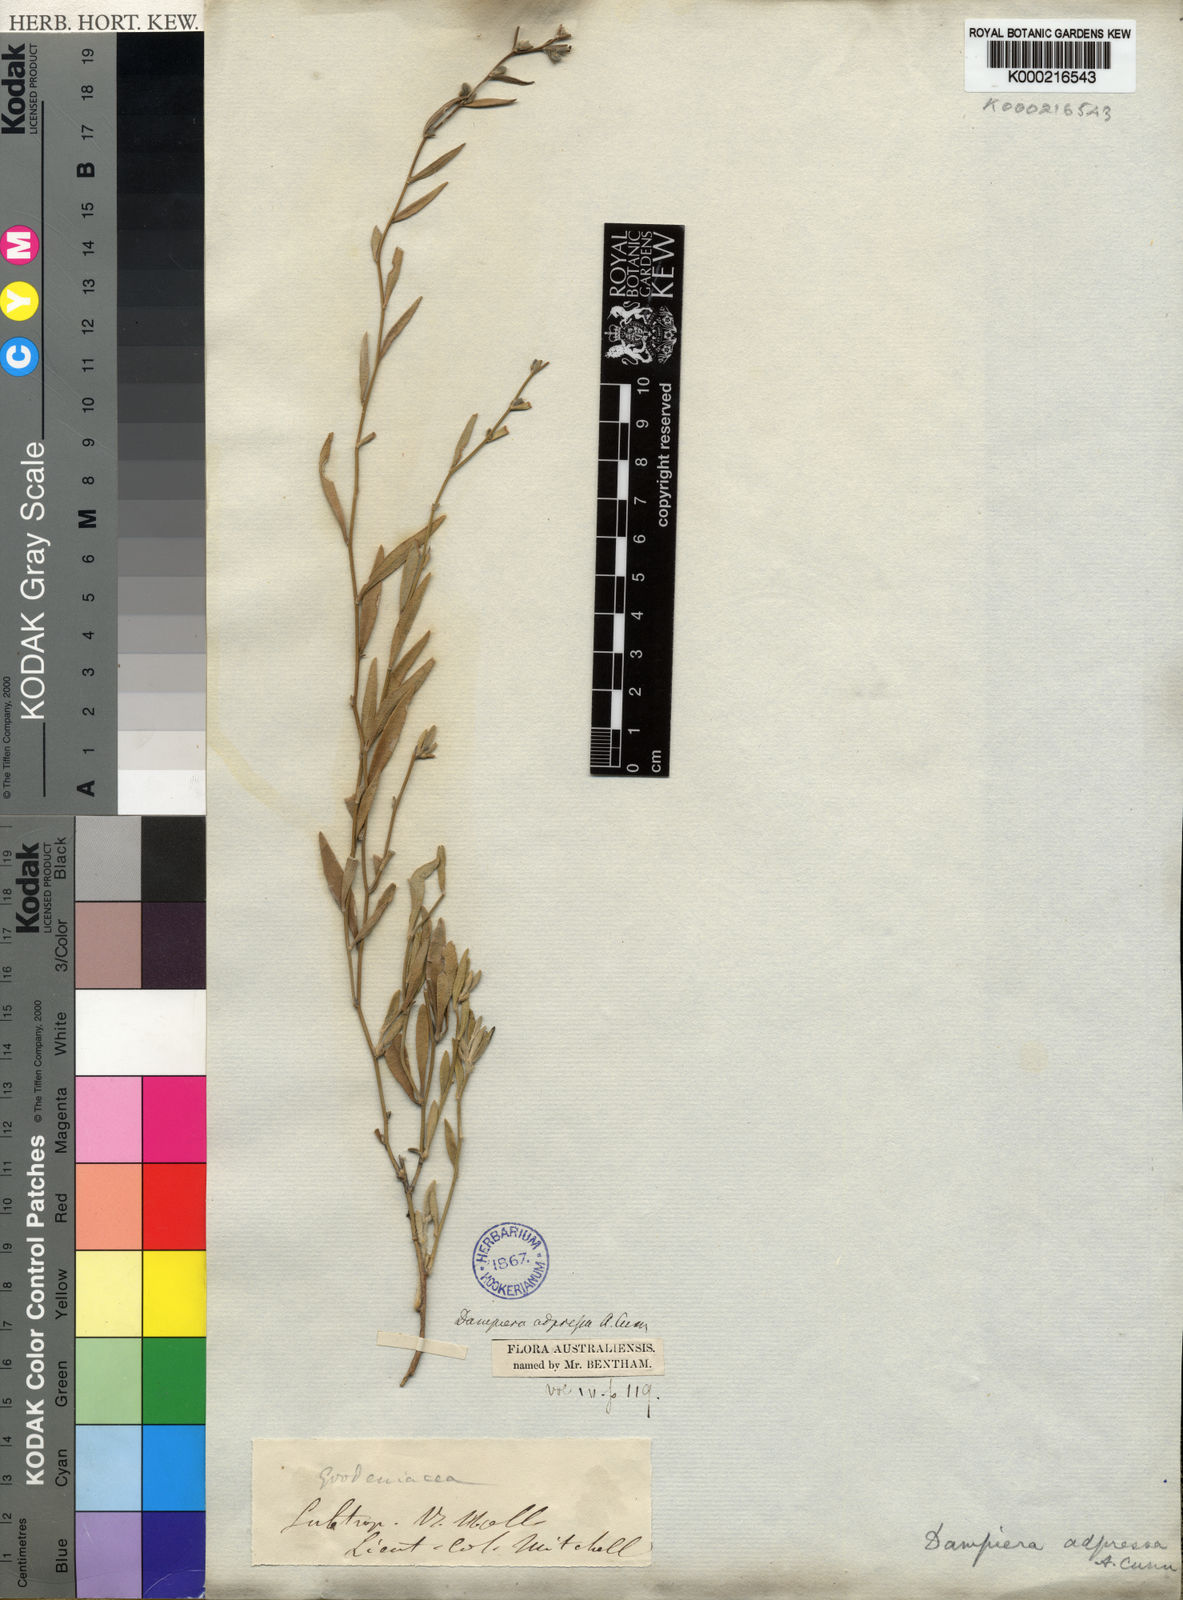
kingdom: Plantae
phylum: Tracheophyta
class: Magnoliopsida
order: Asterales
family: Goodeniaceae
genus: Dampiera
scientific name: Dampiera adpressa
